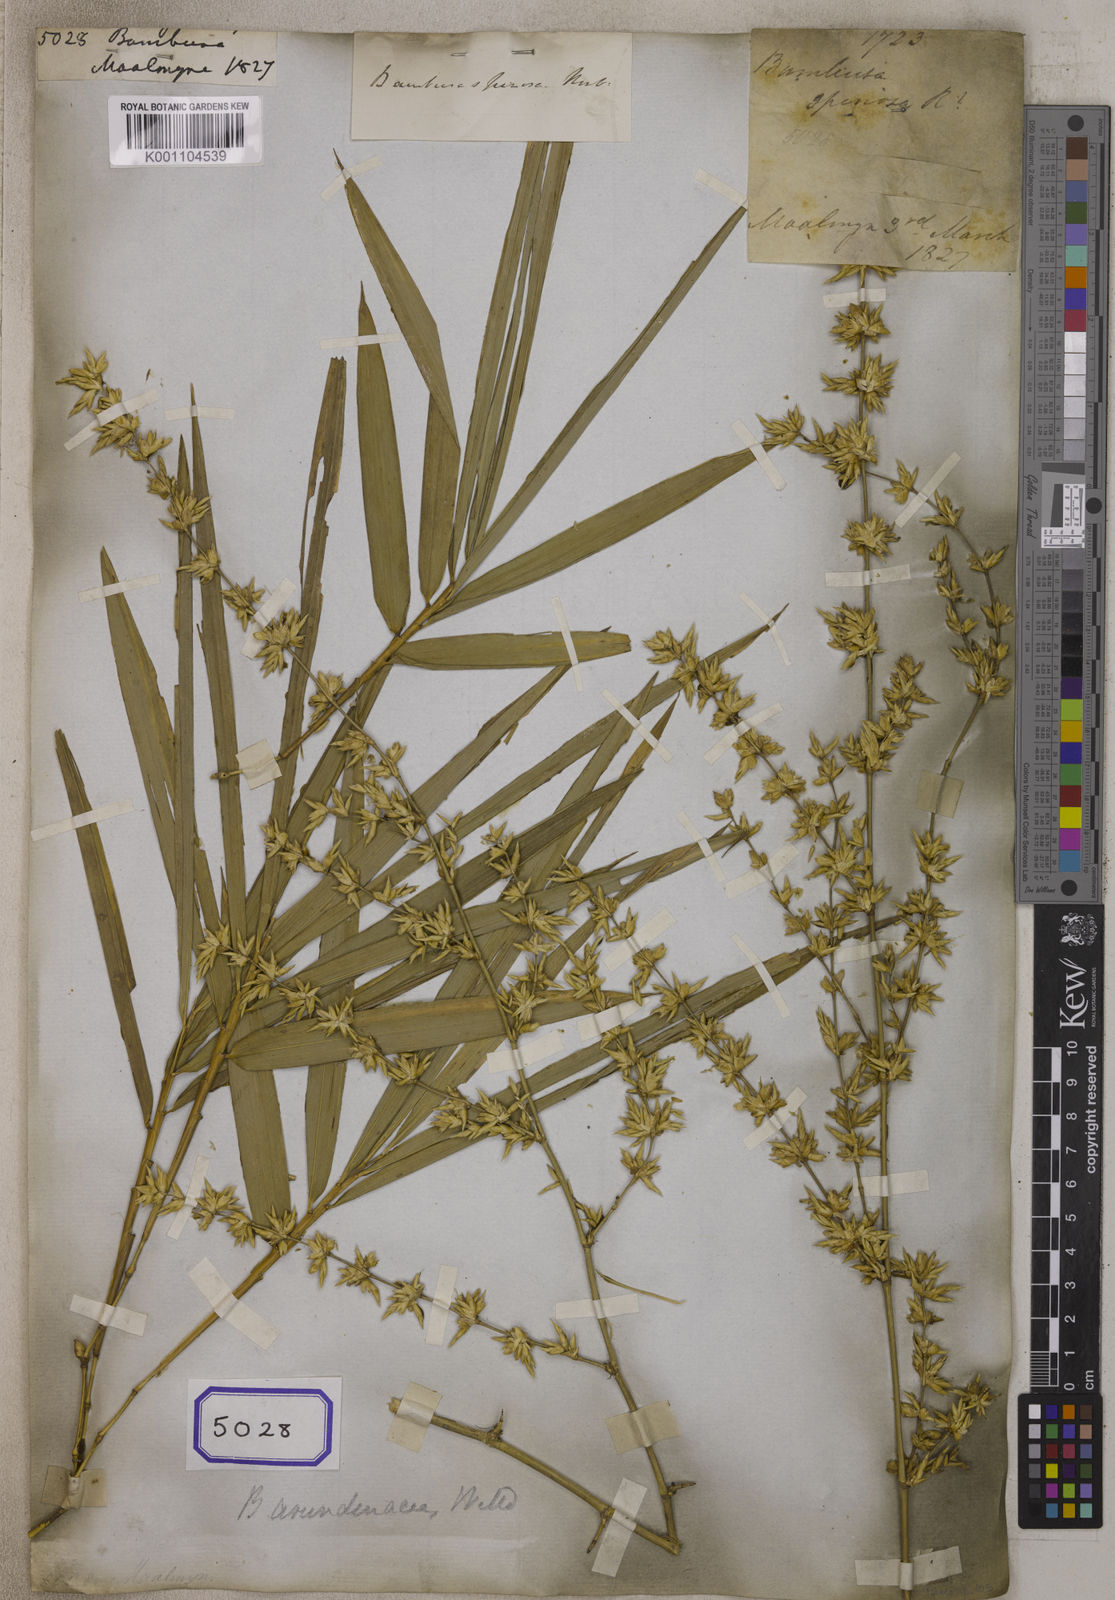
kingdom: Plantae
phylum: Tracheophyta
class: Liliopsida
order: Poales
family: Poaceae
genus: Bambusa
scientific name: Bambusa
